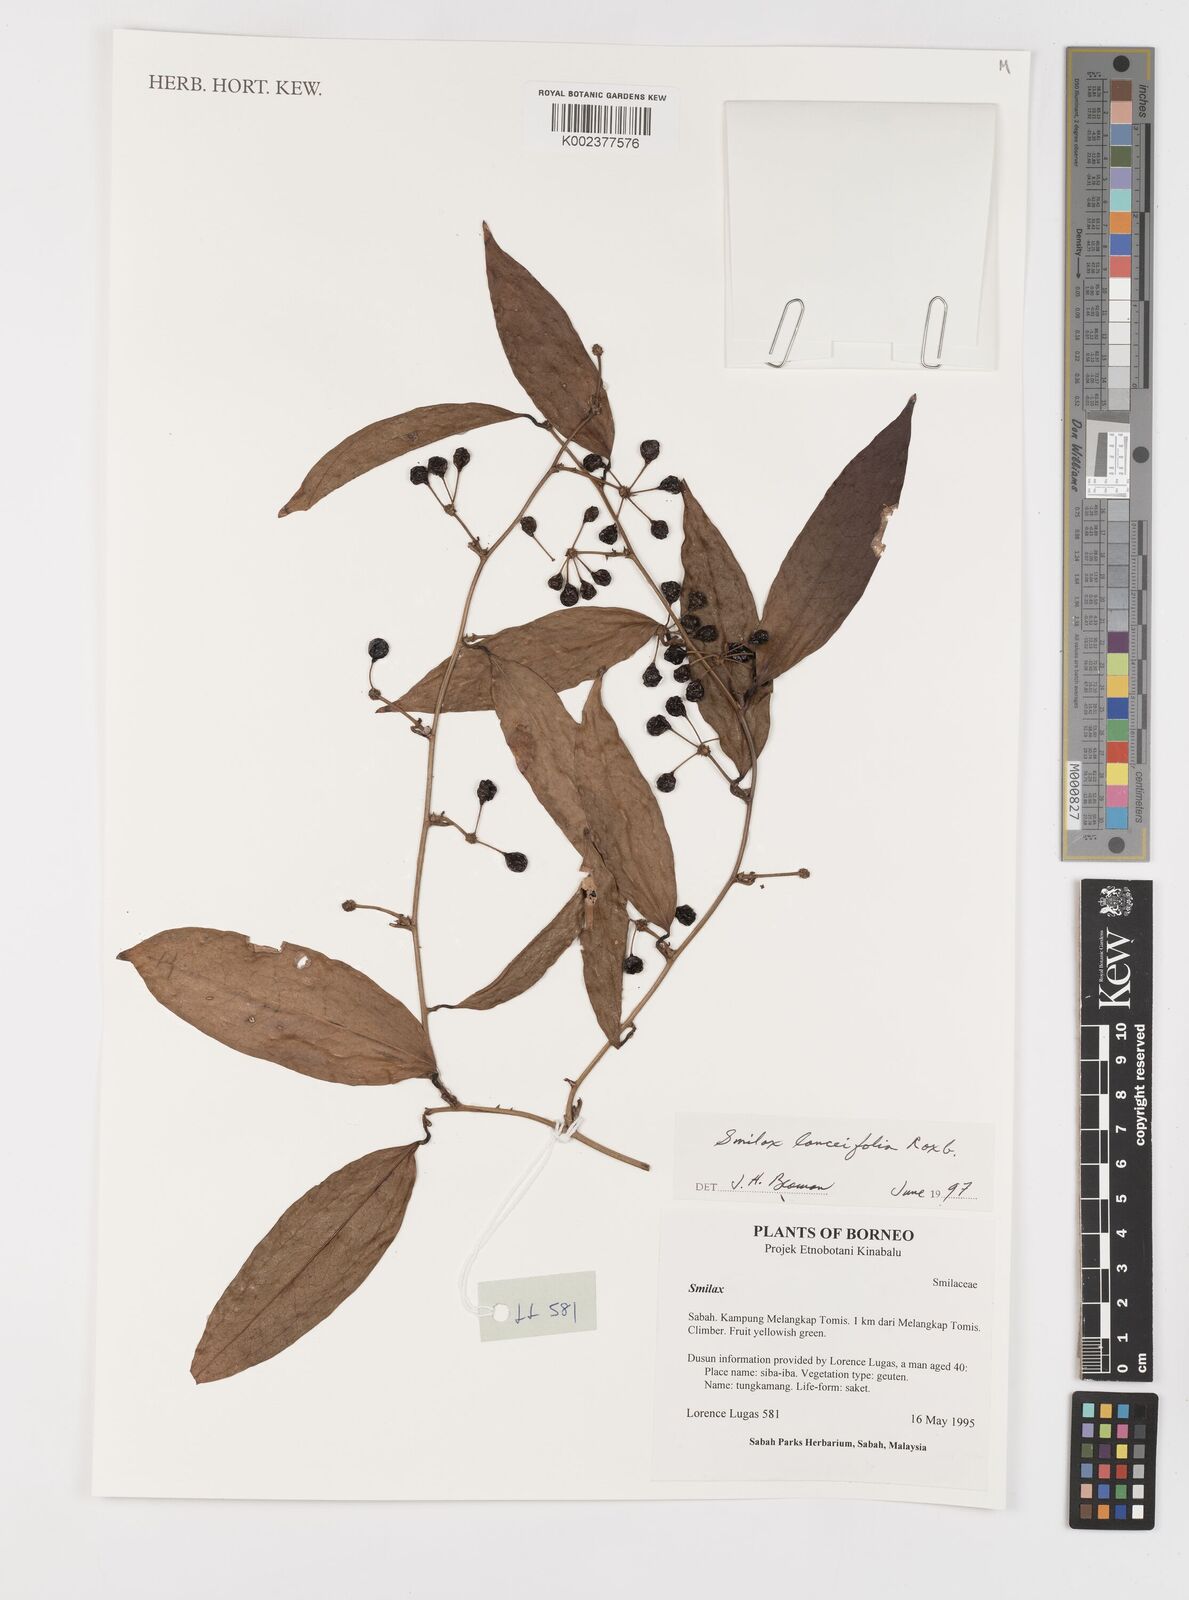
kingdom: Plantae
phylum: Tracheophyta
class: Liliopsida
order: Liliales
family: Smilacaceae
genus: Smilax
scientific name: Smilax lanceifolia
